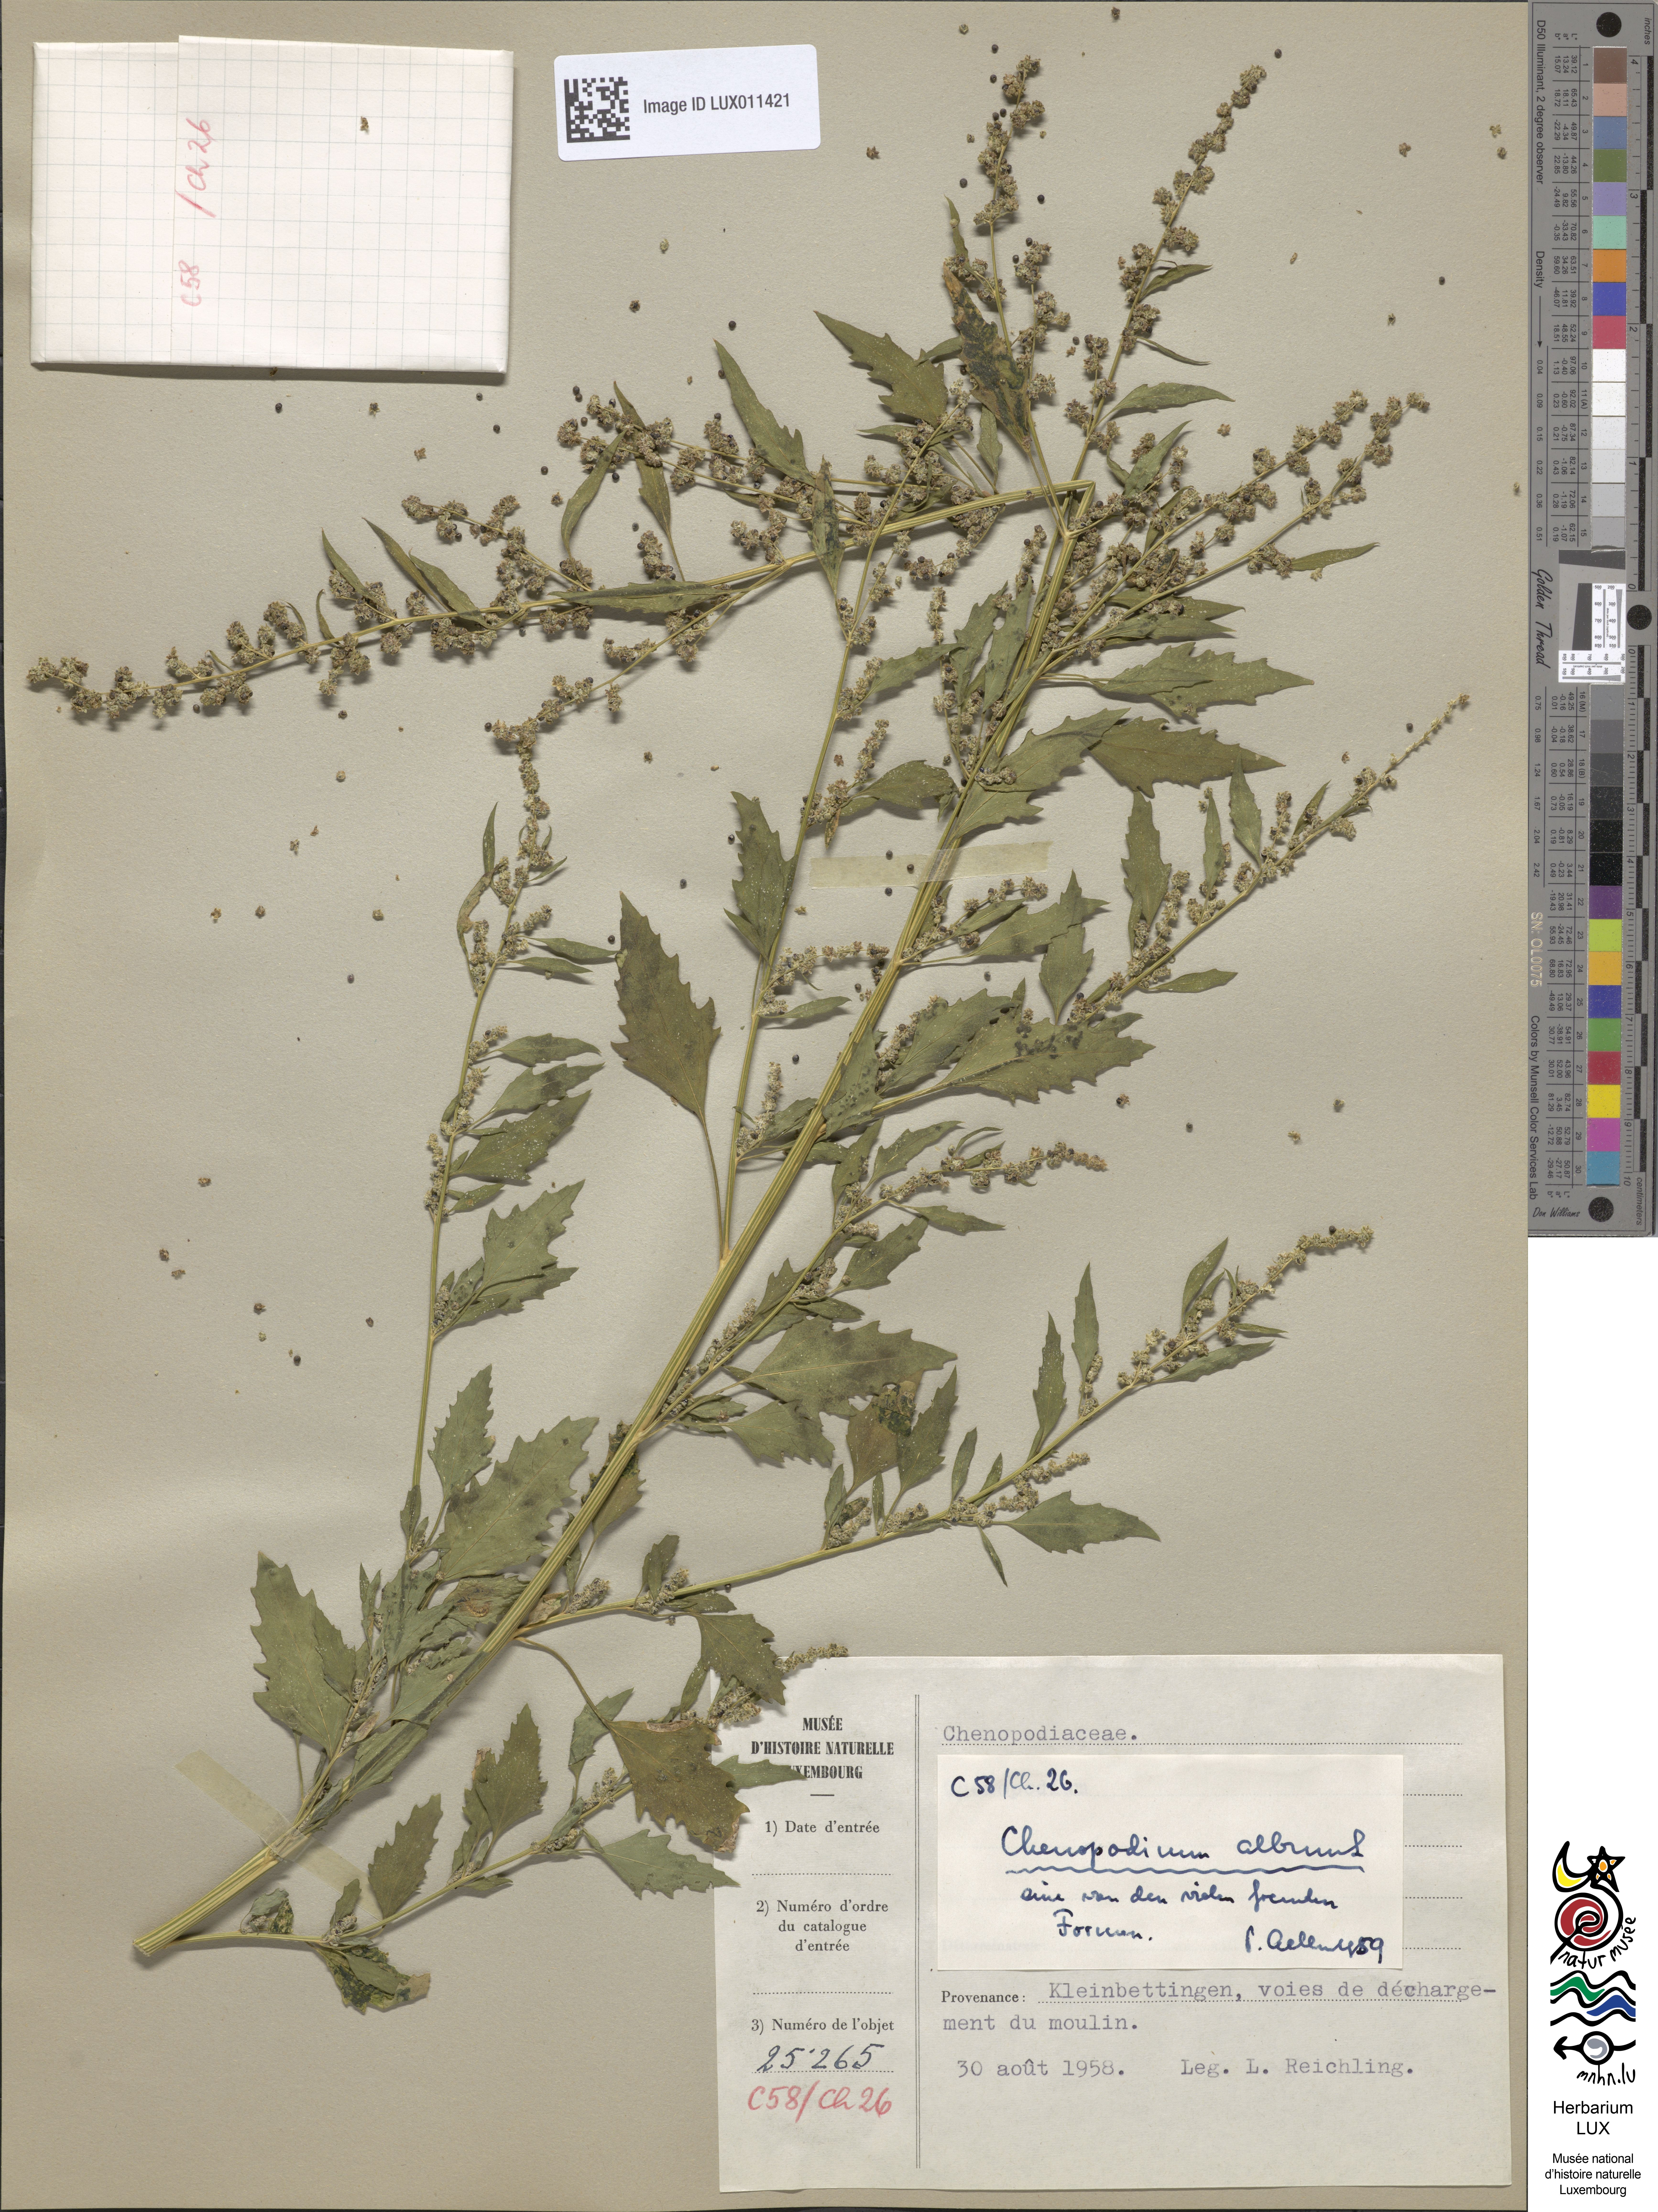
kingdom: Plantae
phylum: Tracheophyta
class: Magnoliopsida
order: Caryophyllales
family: Amaranthaceae
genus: Chenopodium
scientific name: Chenopodium album
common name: Fat-hen
